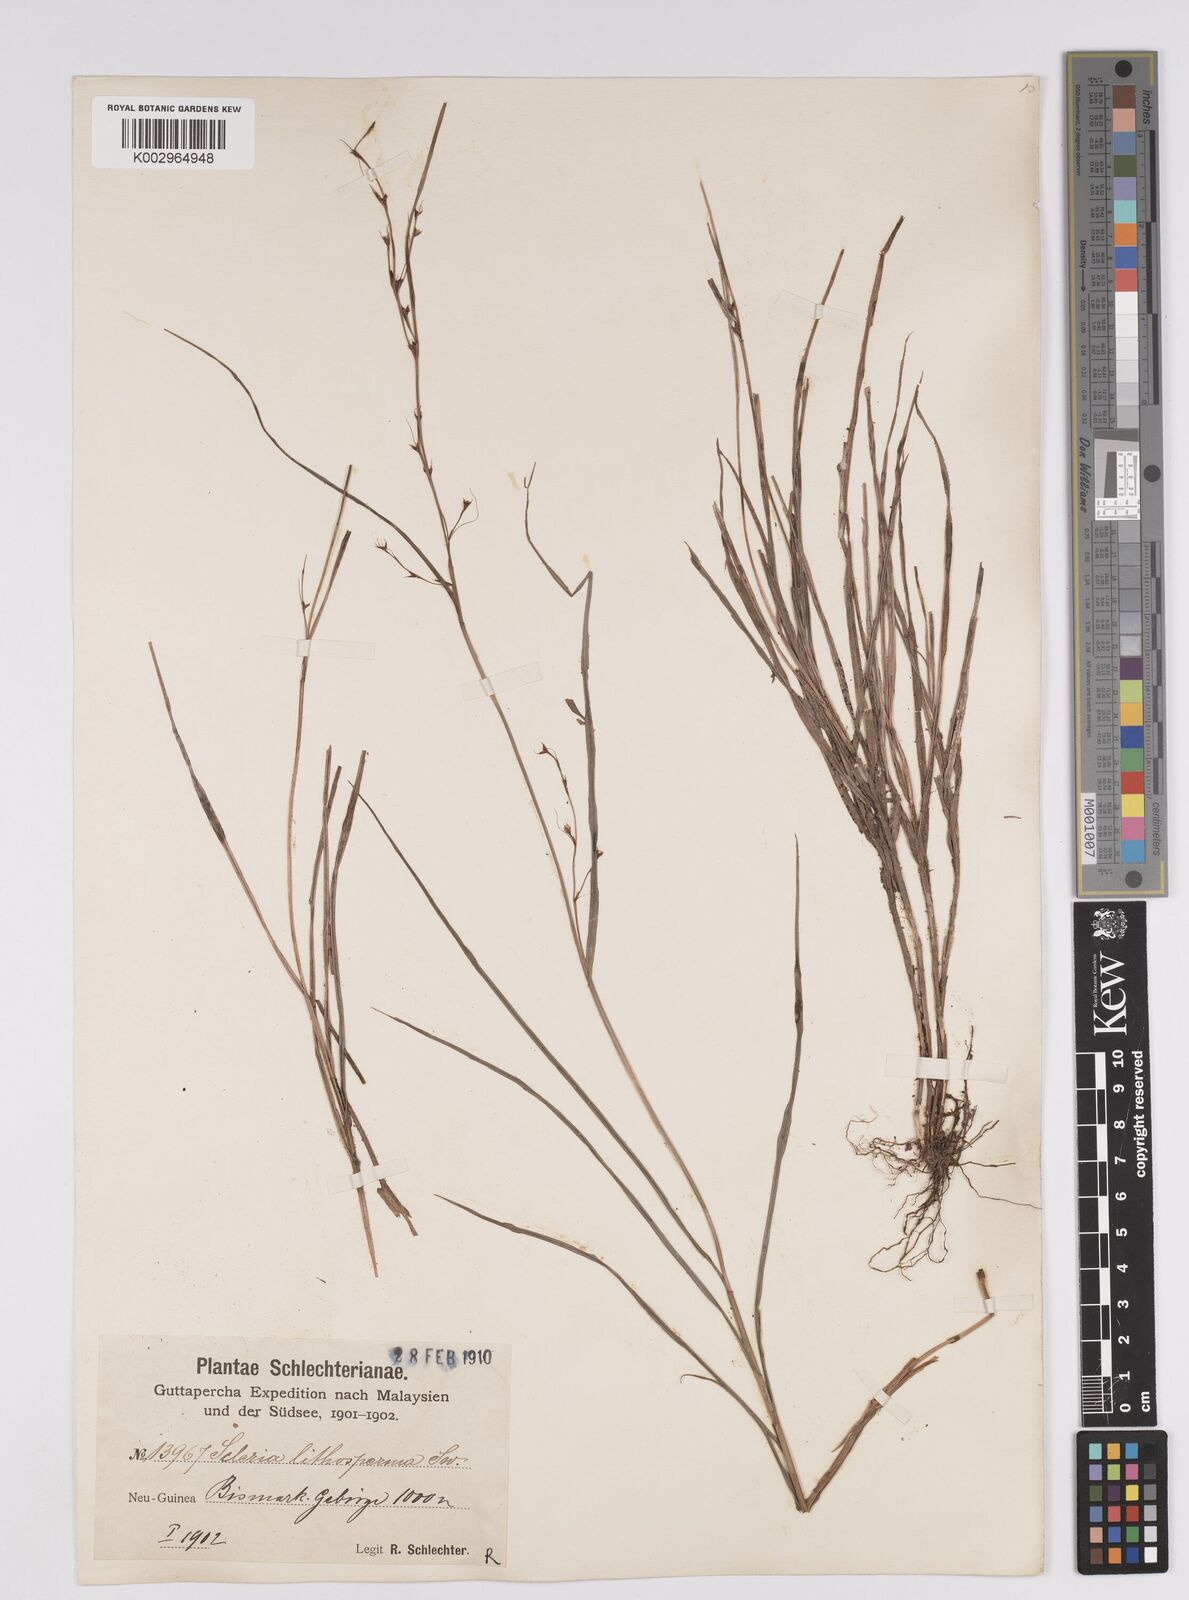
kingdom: Plantae
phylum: Tracheophyta
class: Liliopsida
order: Poales
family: Cyperaceae
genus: Scleria
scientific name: Scleria lithosperma
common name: Florida keys nut-rush
